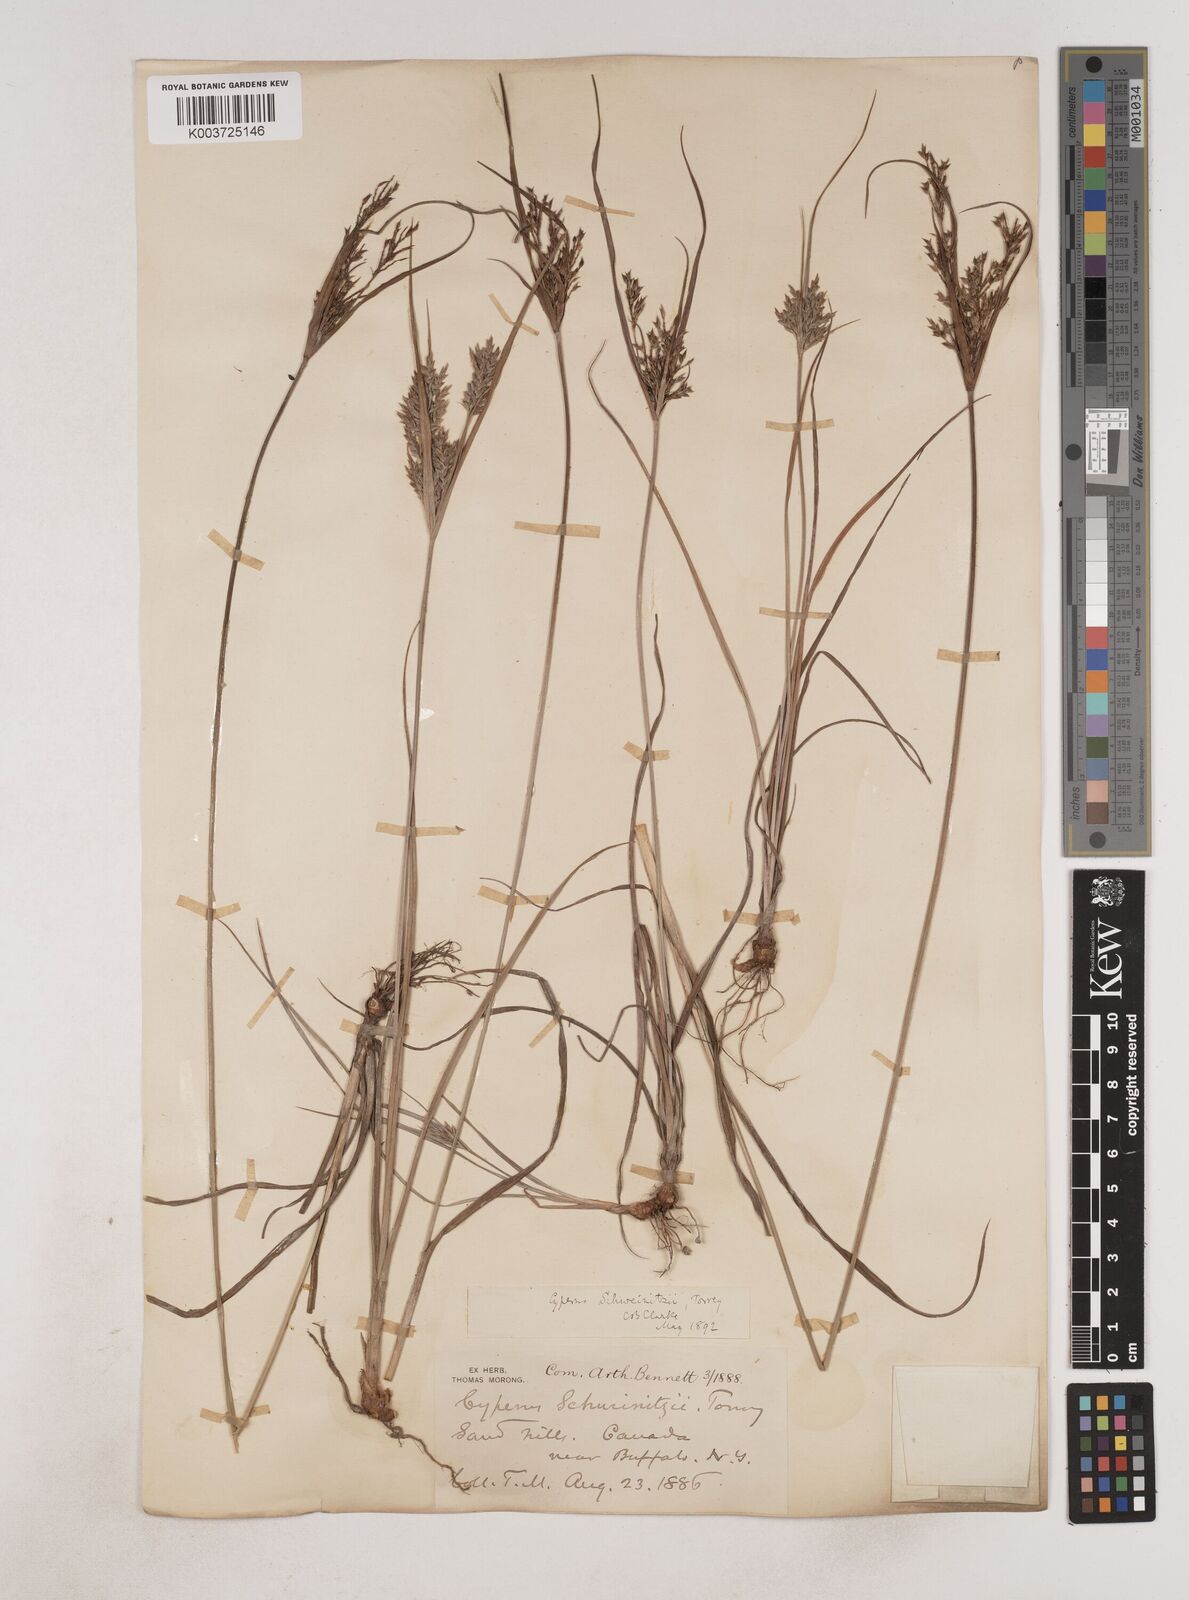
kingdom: Plantae
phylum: Tracheophyta
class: Liliopsida
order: Poales
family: Cyperaceae
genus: Cyperus
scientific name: Cyperus schweinitzii
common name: Schweinitz's cyperus
